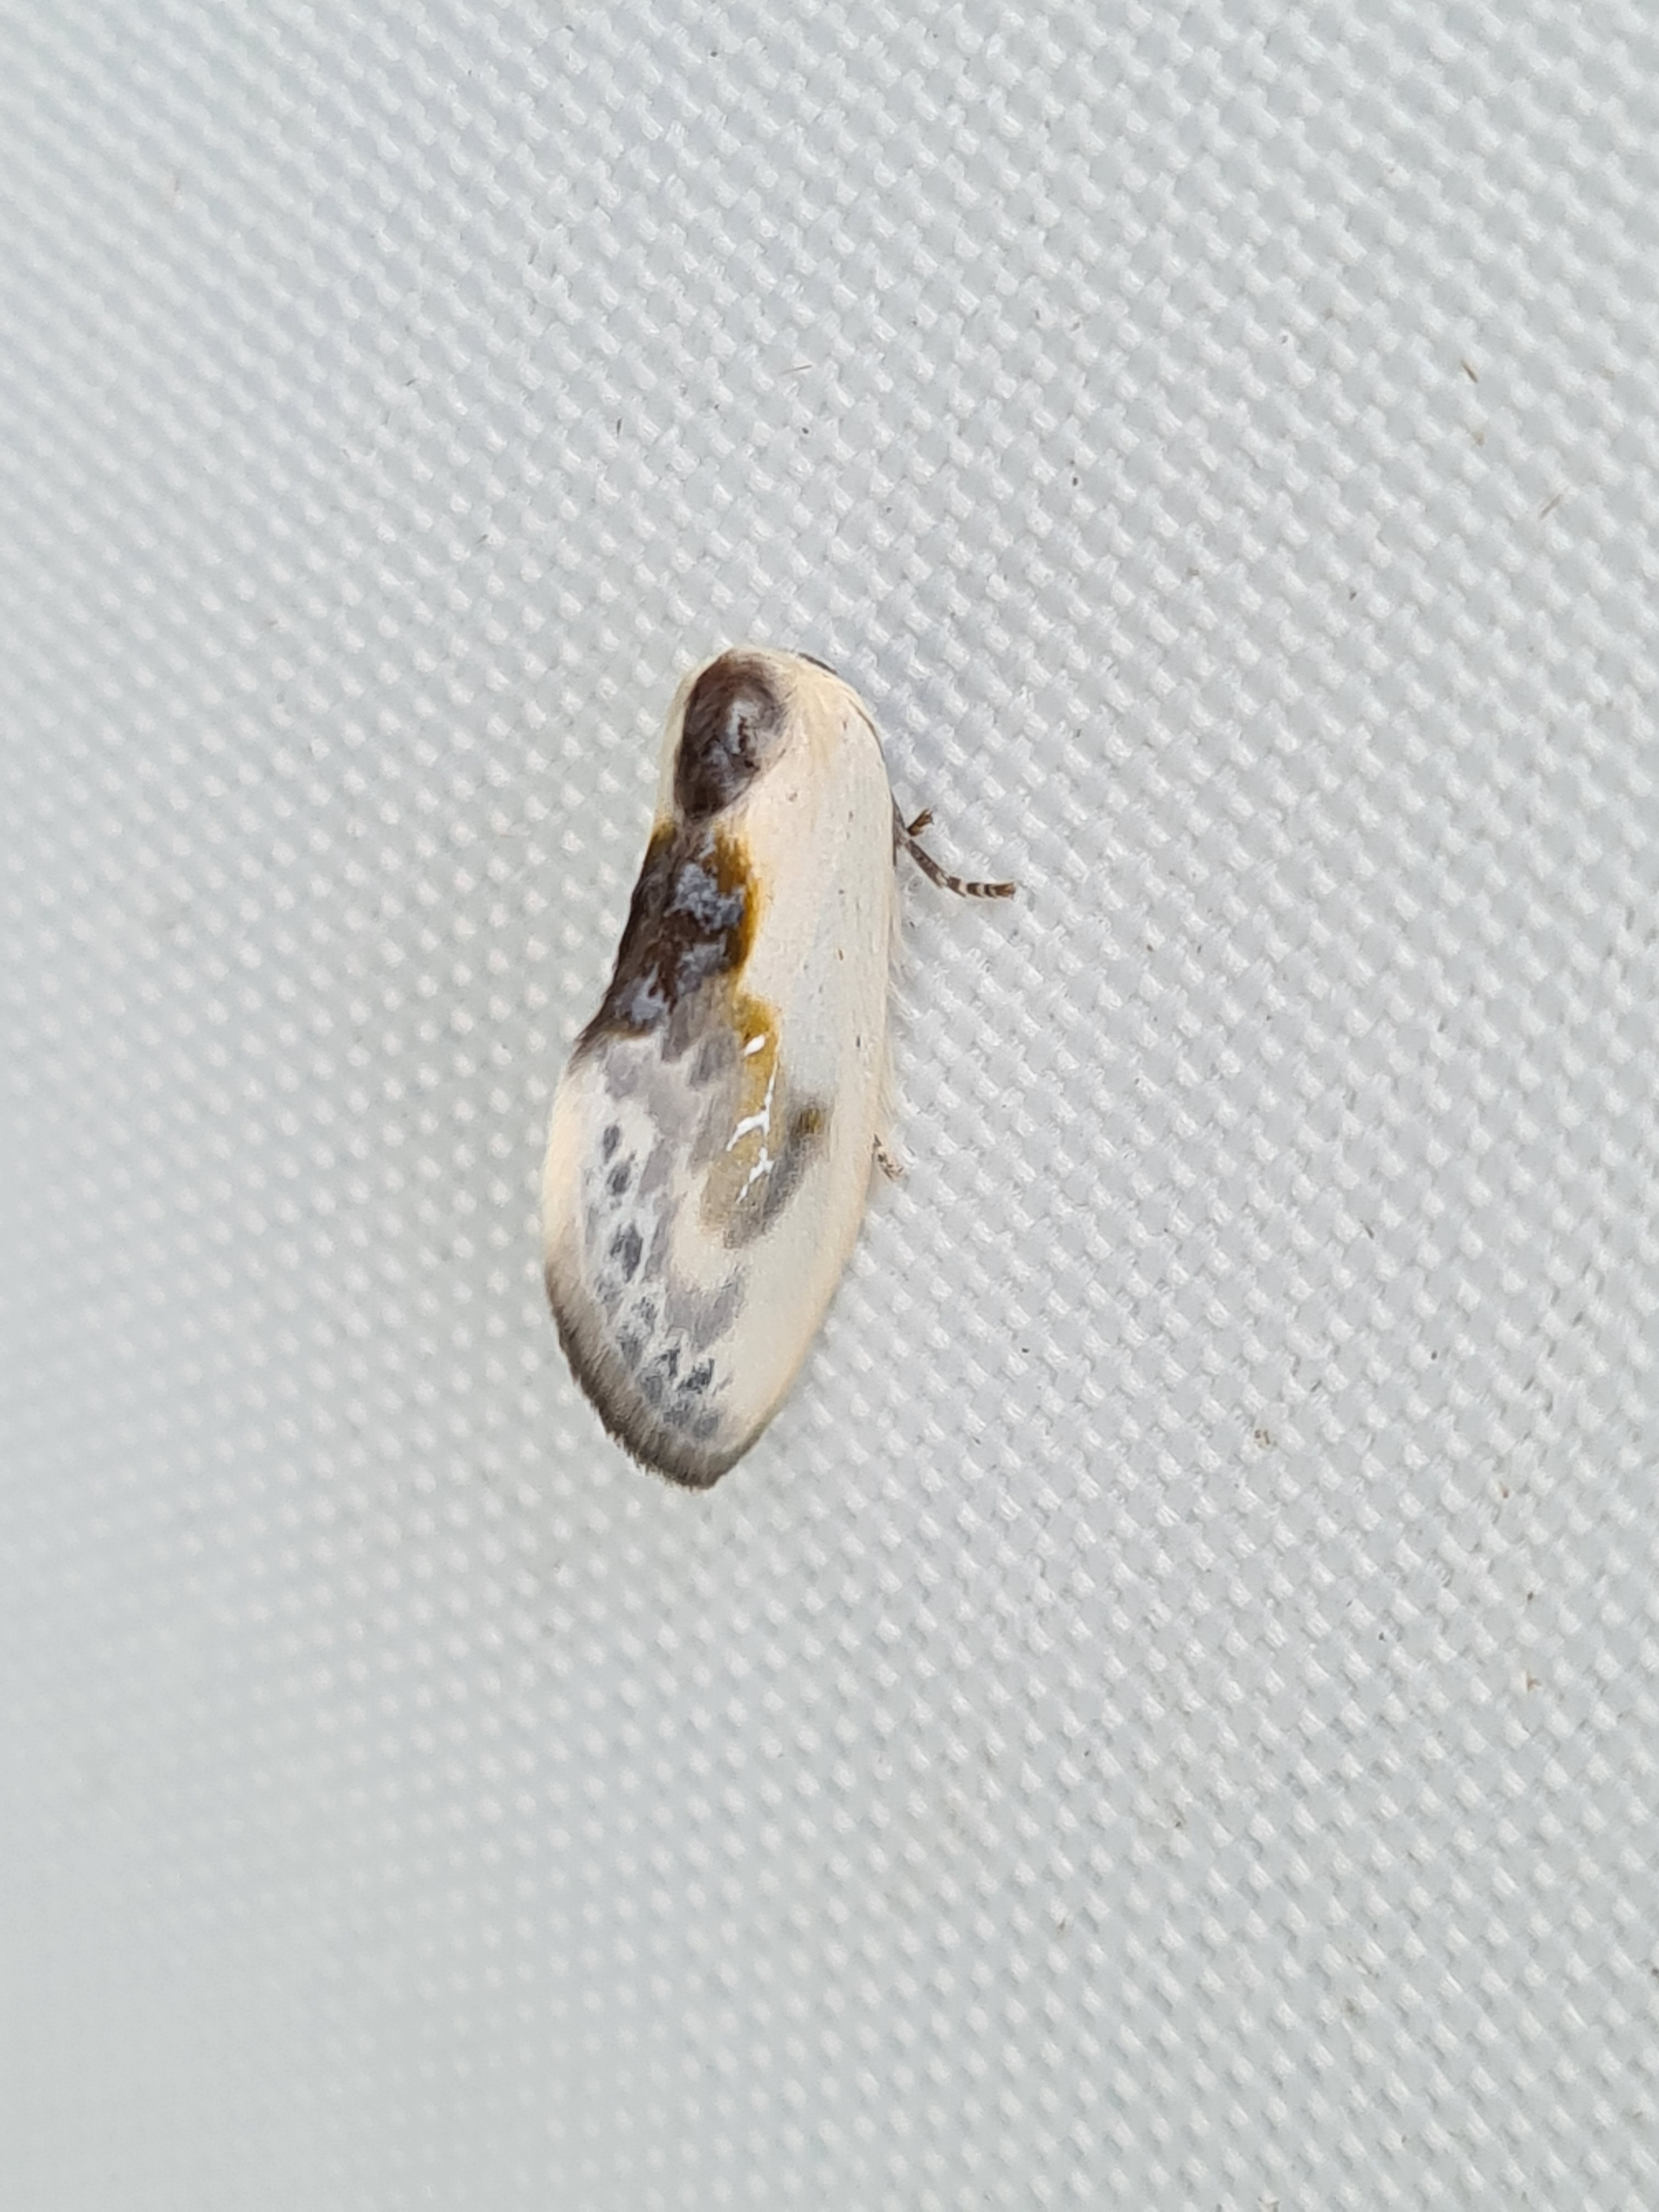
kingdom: Animalia
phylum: Arthropoda
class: Insecta
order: Lepidoptera
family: Drepanidae
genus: Cilix
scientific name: Cilix glaucata
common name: Silkevinge
